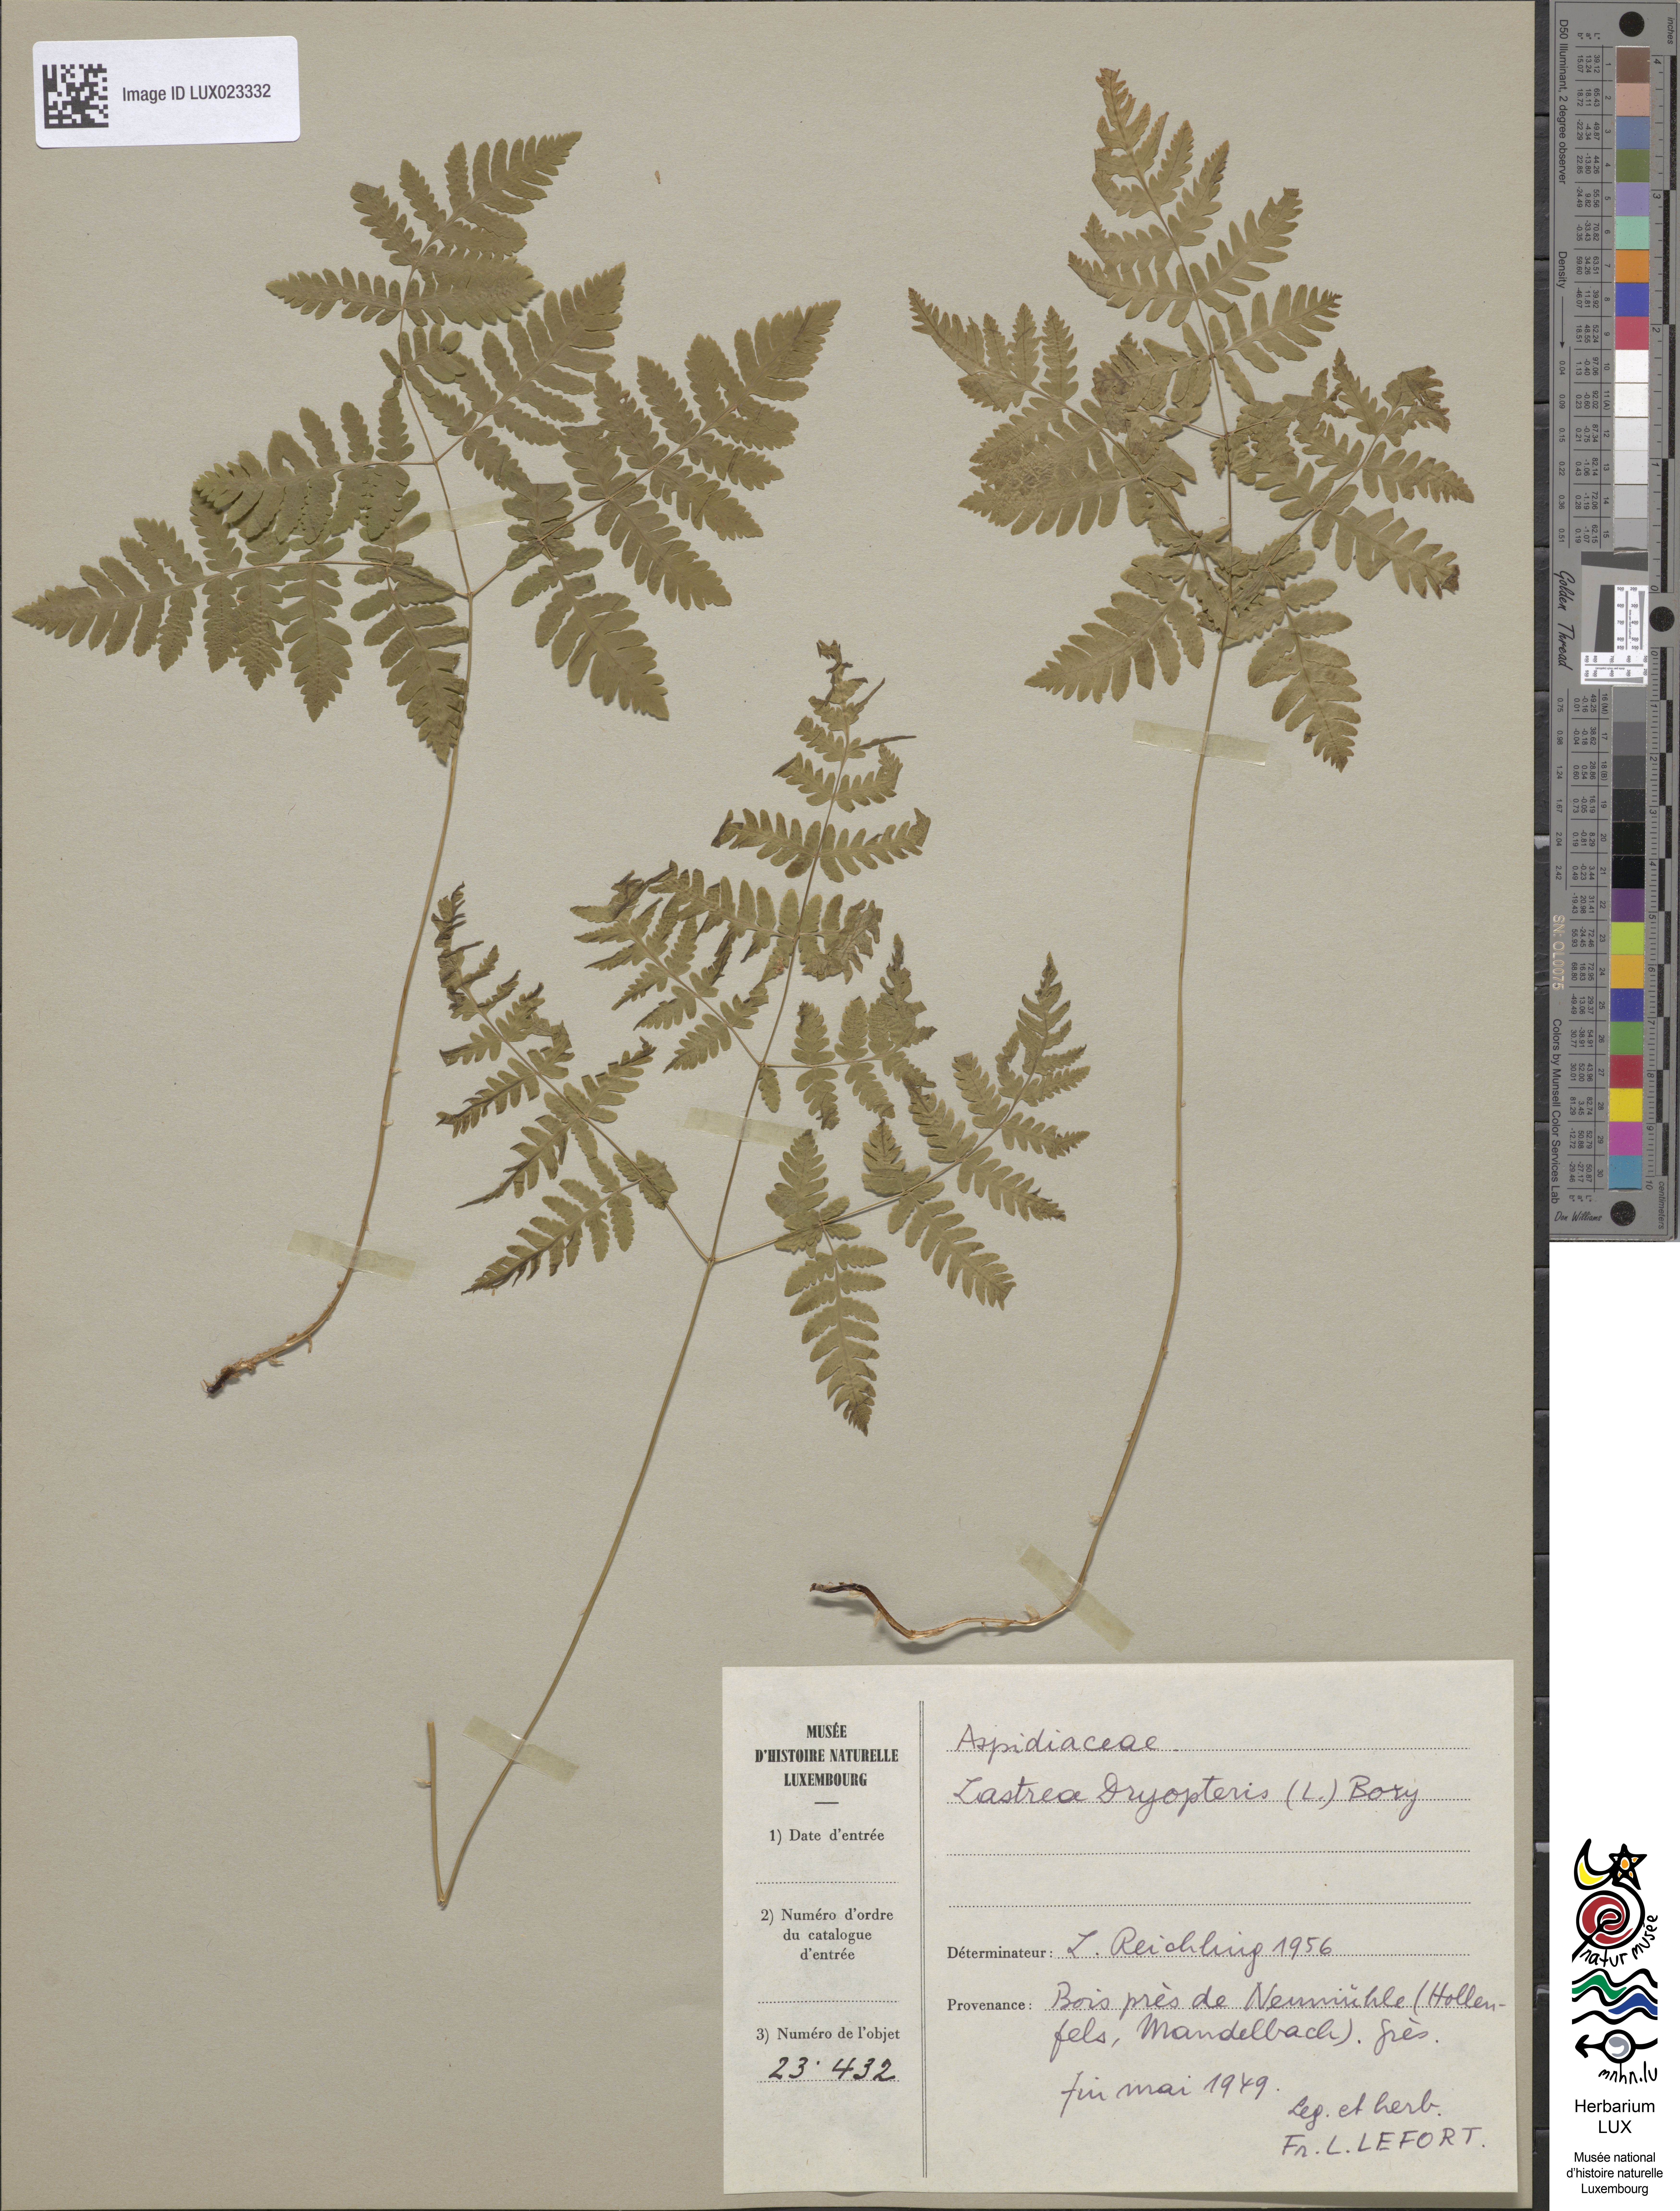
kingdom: Plantae
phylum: Tracheophyta
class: Polypodiopsida
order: Polypodiales
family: Cystopteridaceae
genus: Gymnocarpium
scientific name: Gymnocarpium dryopteris
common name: Oak fern
